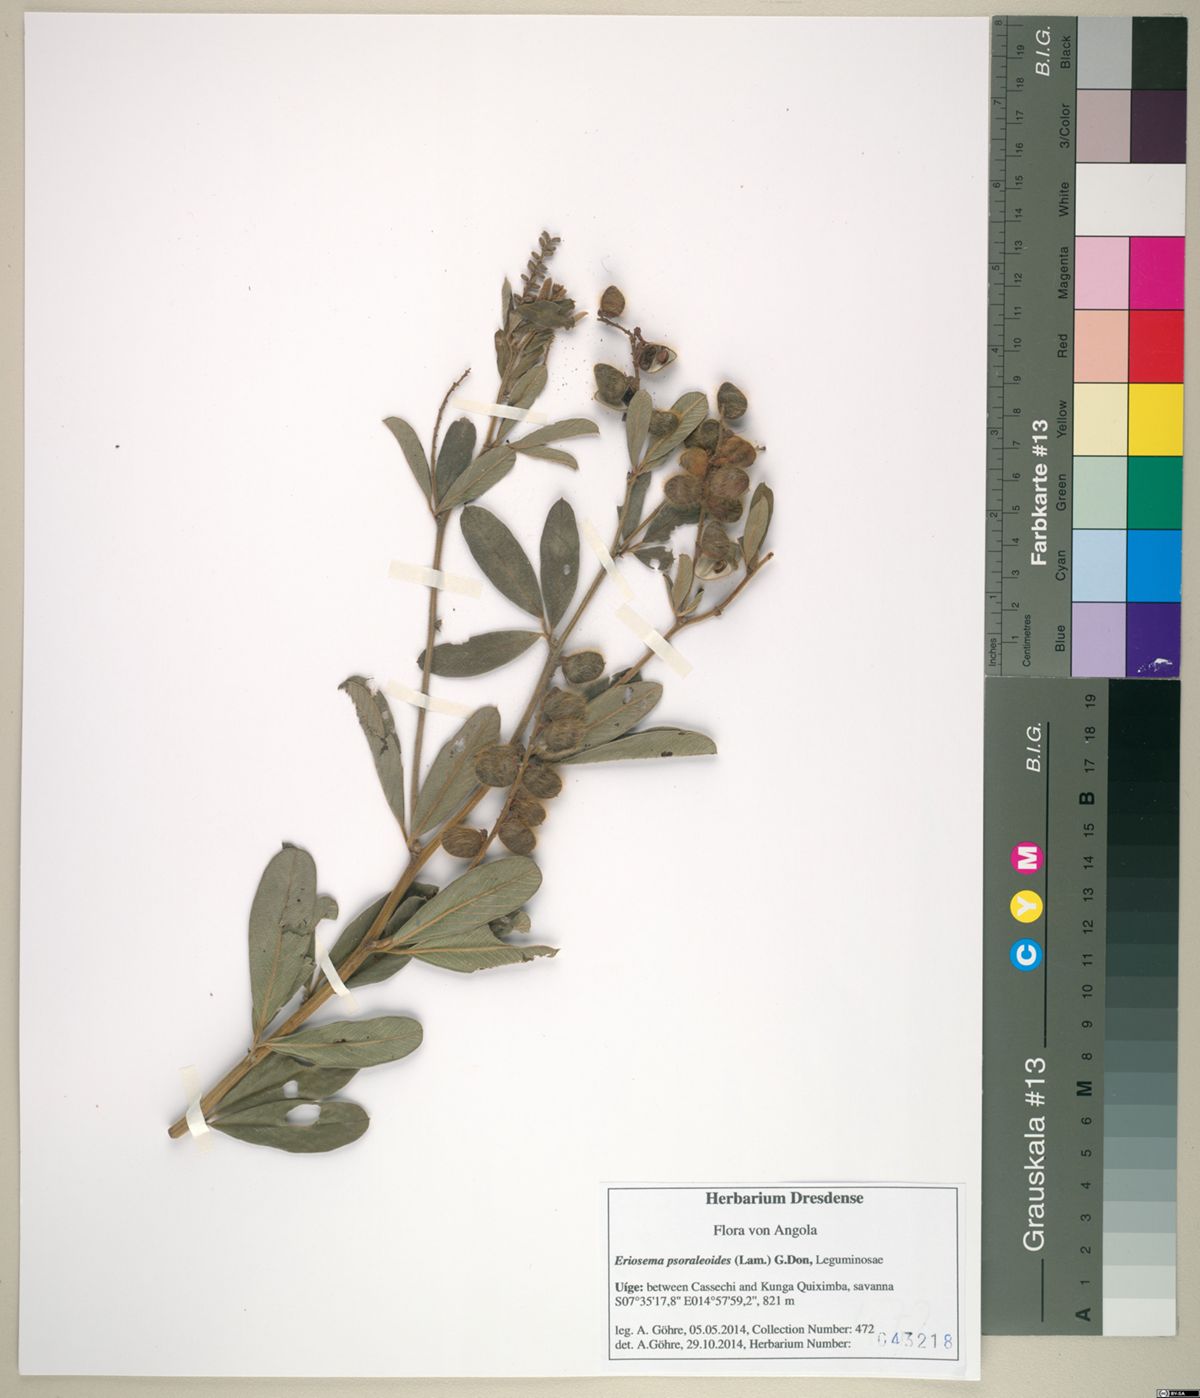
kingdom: Plantae
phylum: Tracheophyta
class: Magnoliopsida
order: Fabales
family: Fabaceae
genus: Eriosema
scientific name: Eriosema psoraleoides
